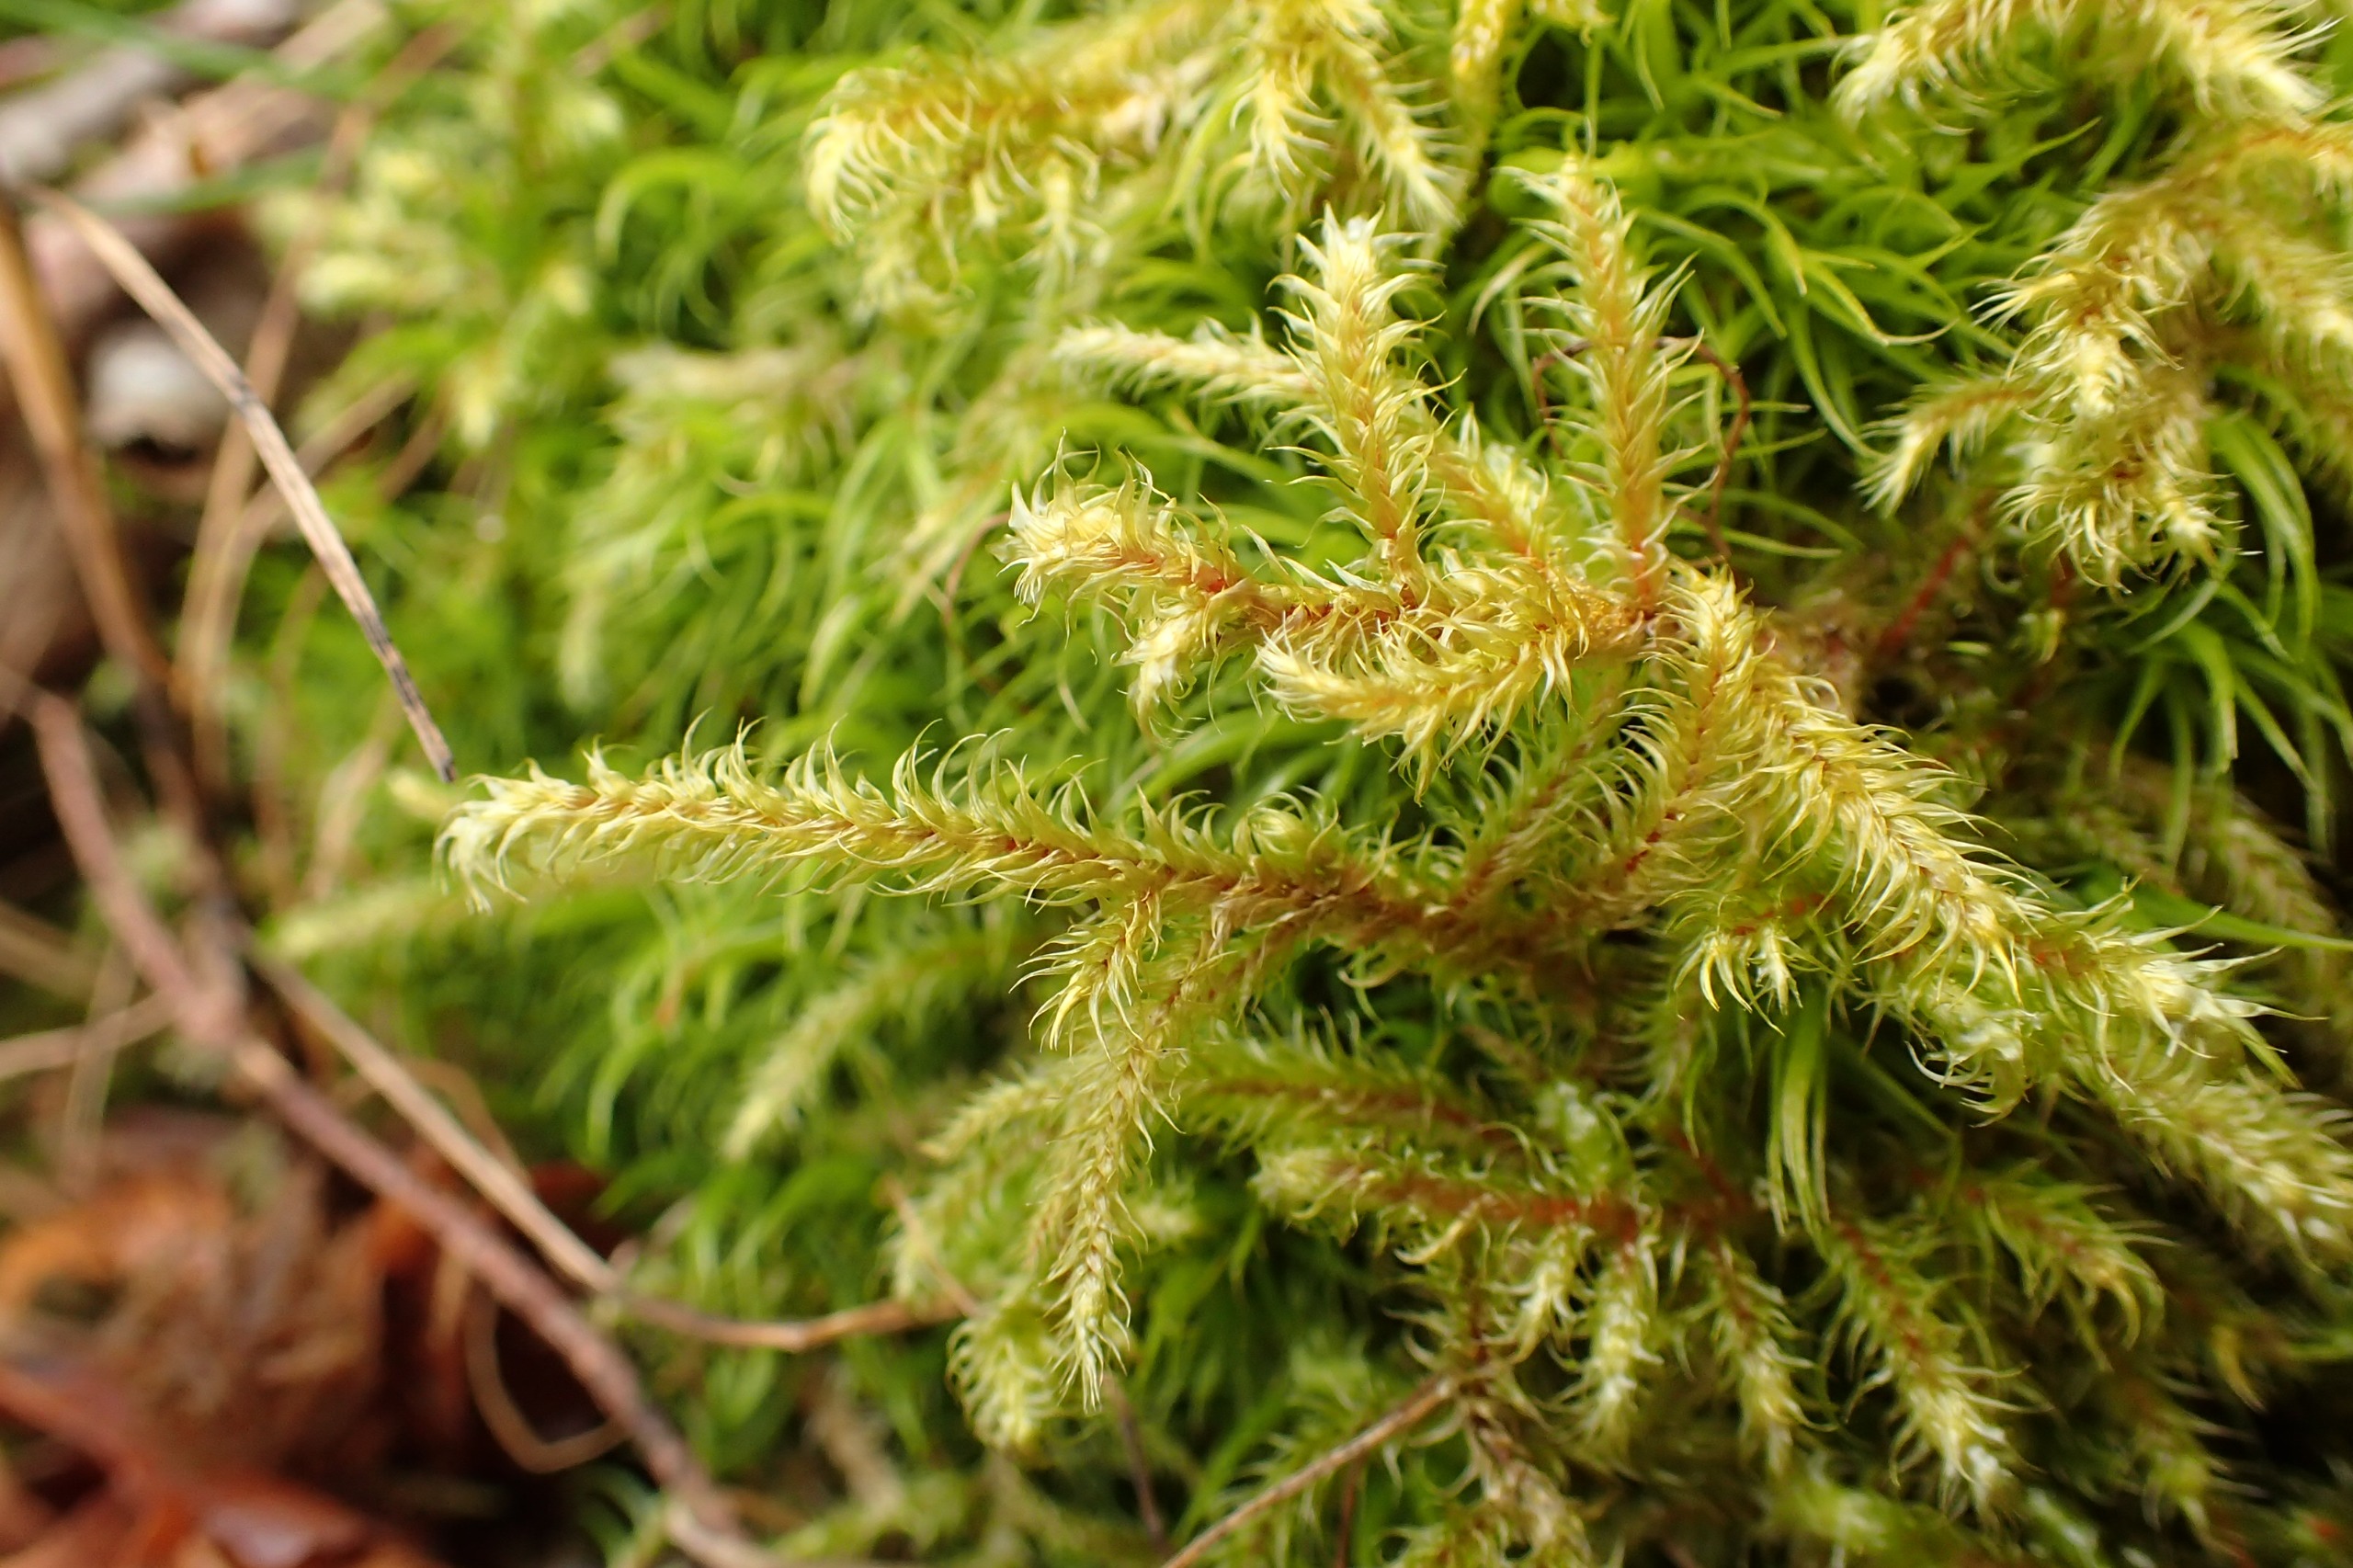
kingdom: Plantae
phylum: Bryophyta
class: Bryopsida
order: Hypnales
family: Hylocomiaceae
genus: Rhytidiadelphus
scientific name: Rhytidiadelphus loreus
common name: Ulvefod-kransemos
